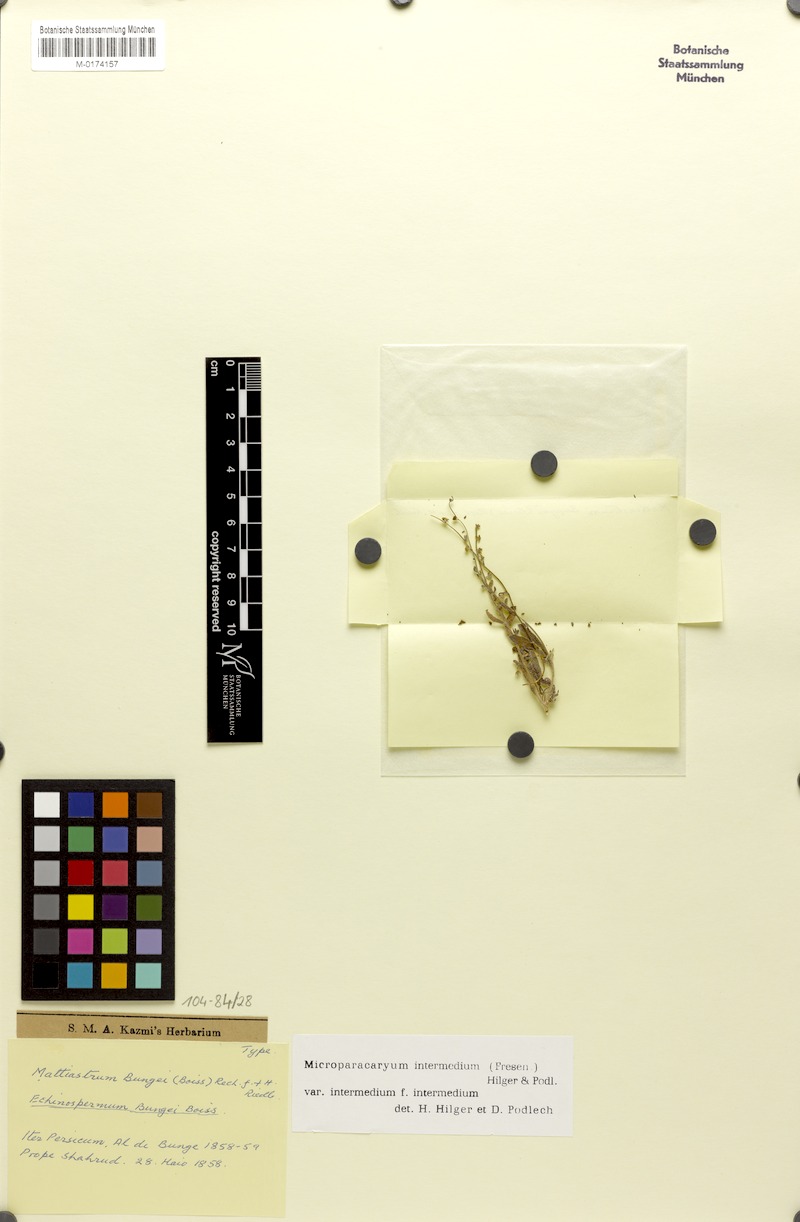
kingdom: Plantae
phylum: Tracheophyta
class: Magnoliopsida
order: Boraginales
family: Boraginaceae
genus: Microparacaryum
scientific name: Microparacaryum intermedium
